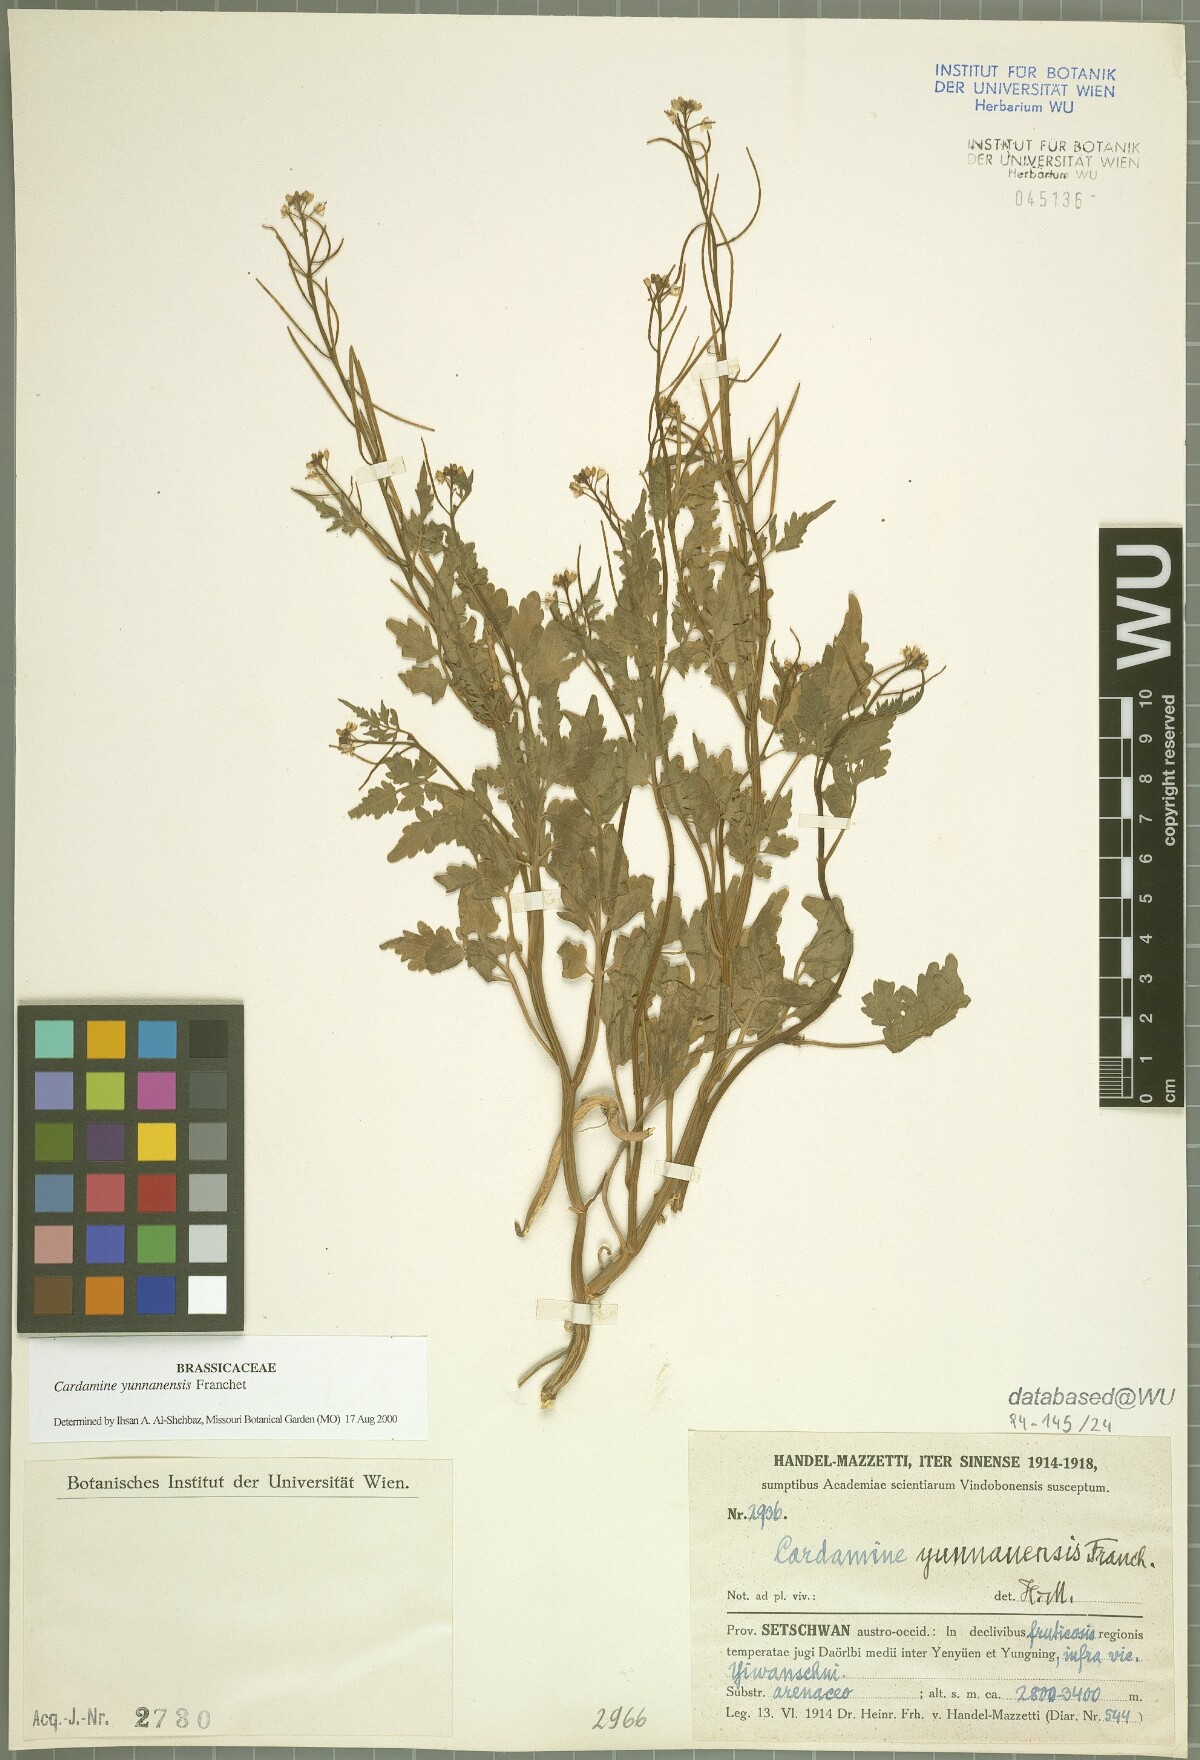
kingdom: Plantae
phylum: Tracheophyta
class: Magnoliopsida
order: Brassicales
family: Brassicaceae
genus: Cardamine
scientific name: Cardamine yunnanensis
